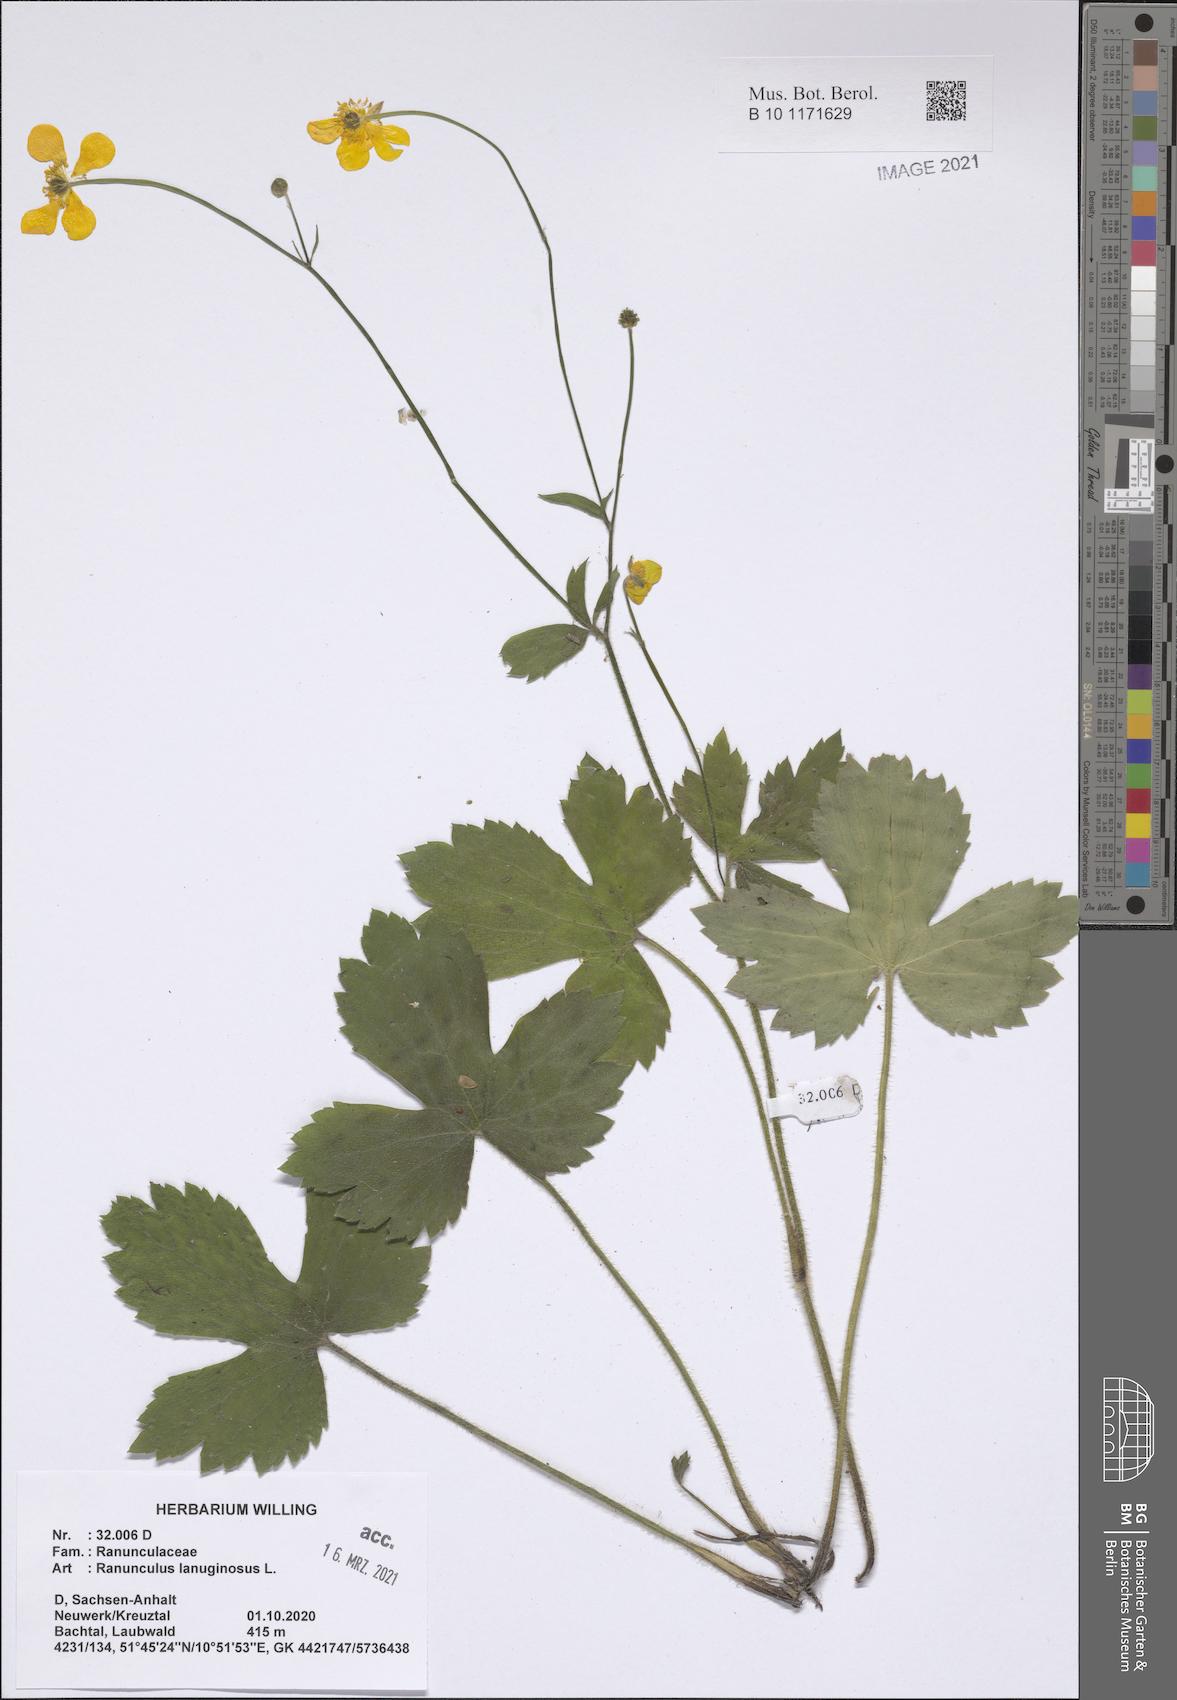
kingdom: Plantae
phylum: Tracheophyta
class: Magnoliopsida
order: Ranunculales
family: Ranunculaceae
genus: Ranunculus
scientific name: Ranunculus lanuginosus
